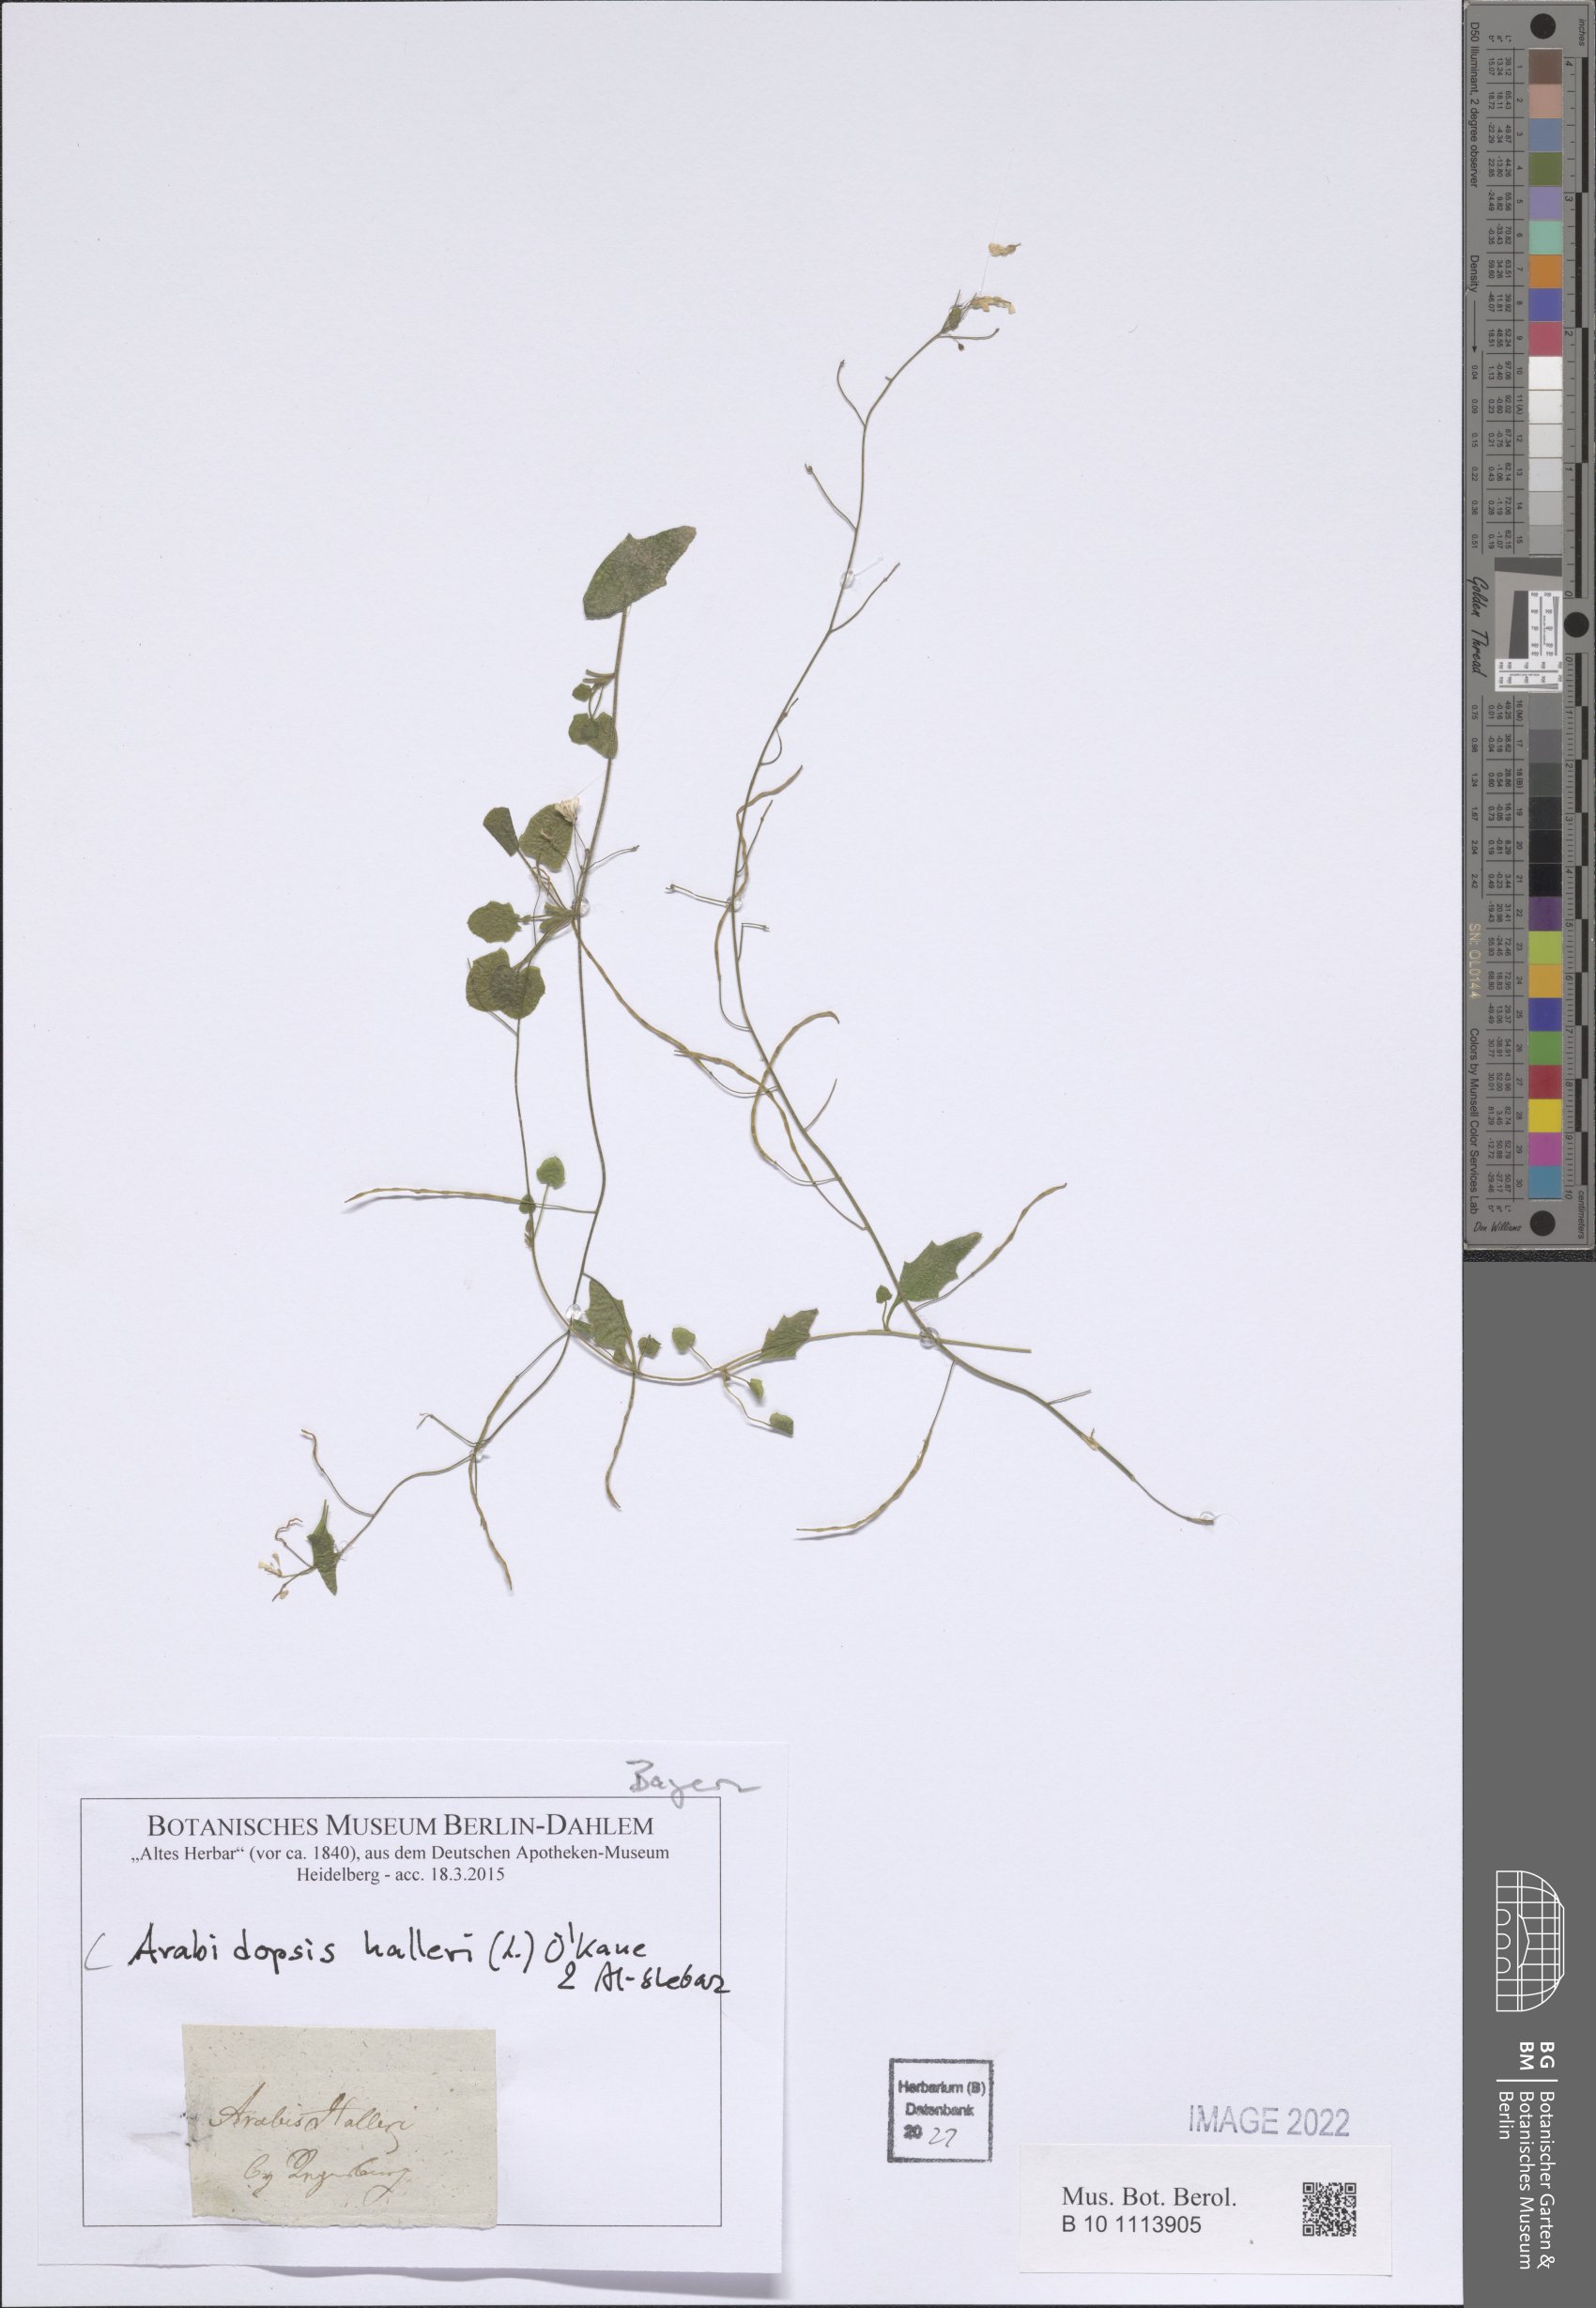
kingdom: Plantae
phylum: Tracheophyta
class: Magnoliopsida
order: Brassicales
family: Brassicaceae
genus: Arabidopsis
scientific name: Arabidopsis halleri
